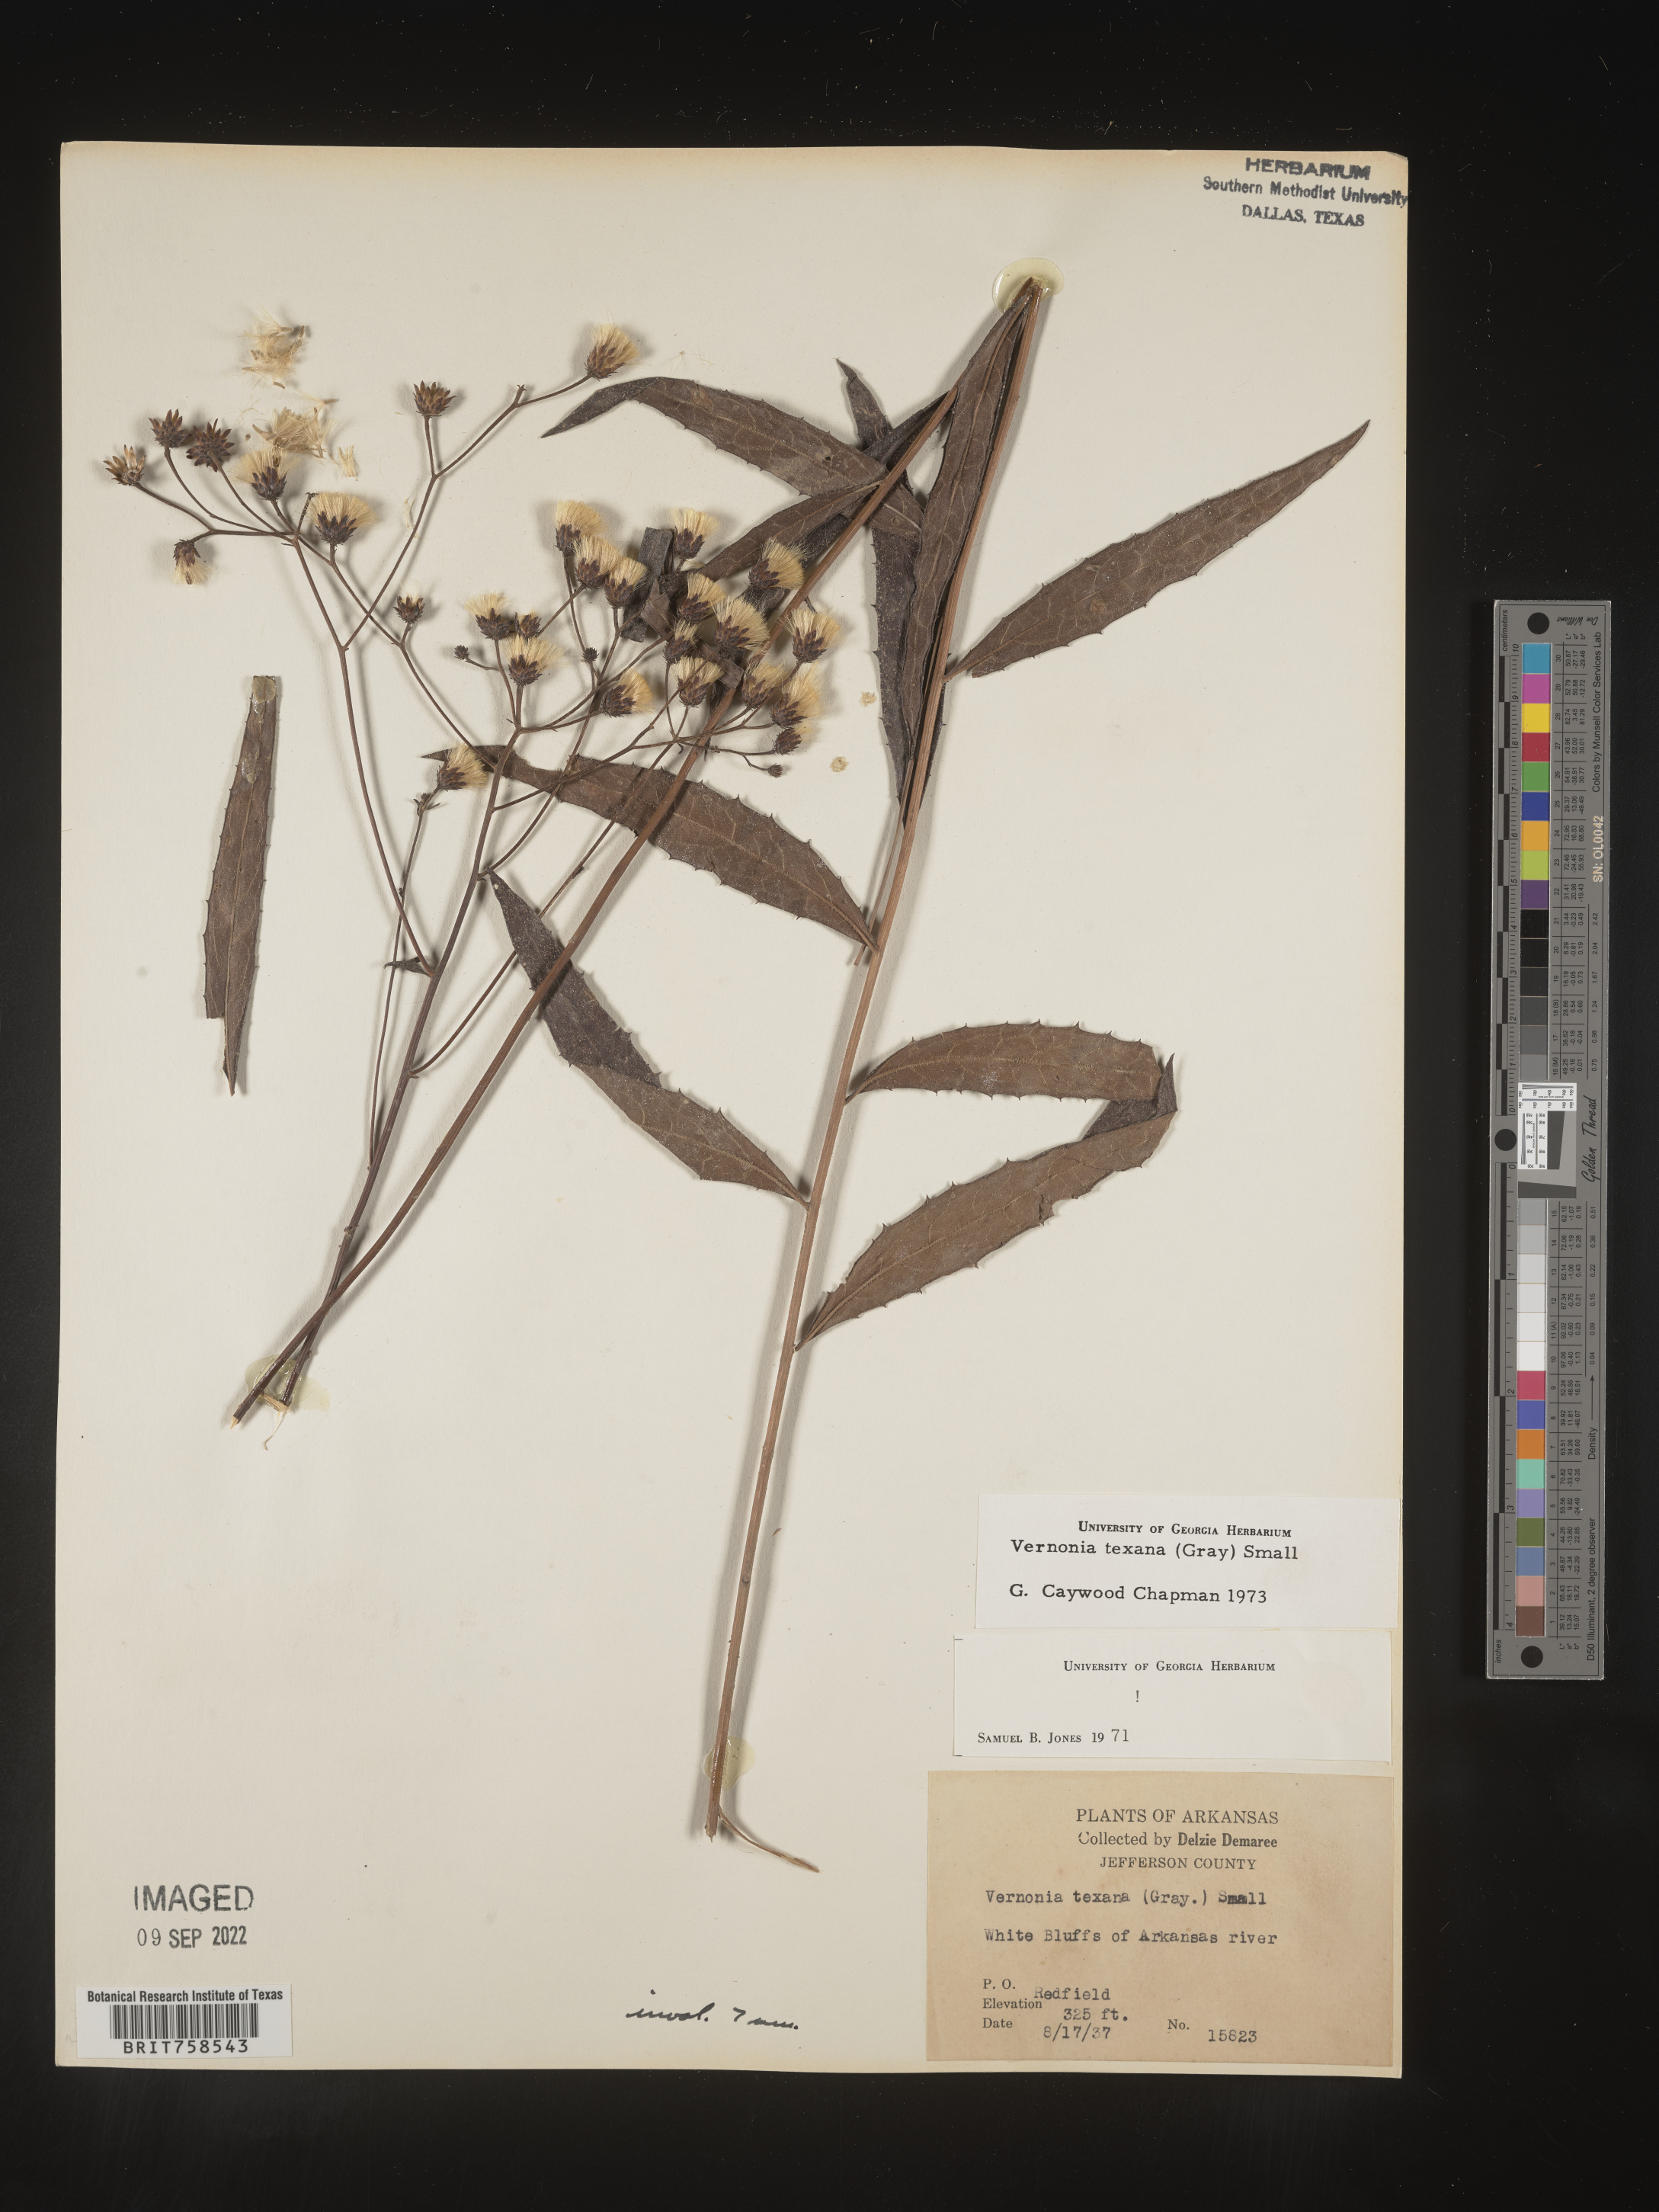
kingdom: Plantae
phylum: Tracheophyta
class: Magnoliopsida
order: Asterales
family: Asteraceae
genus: Vernonia
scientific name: Vernonia texana
